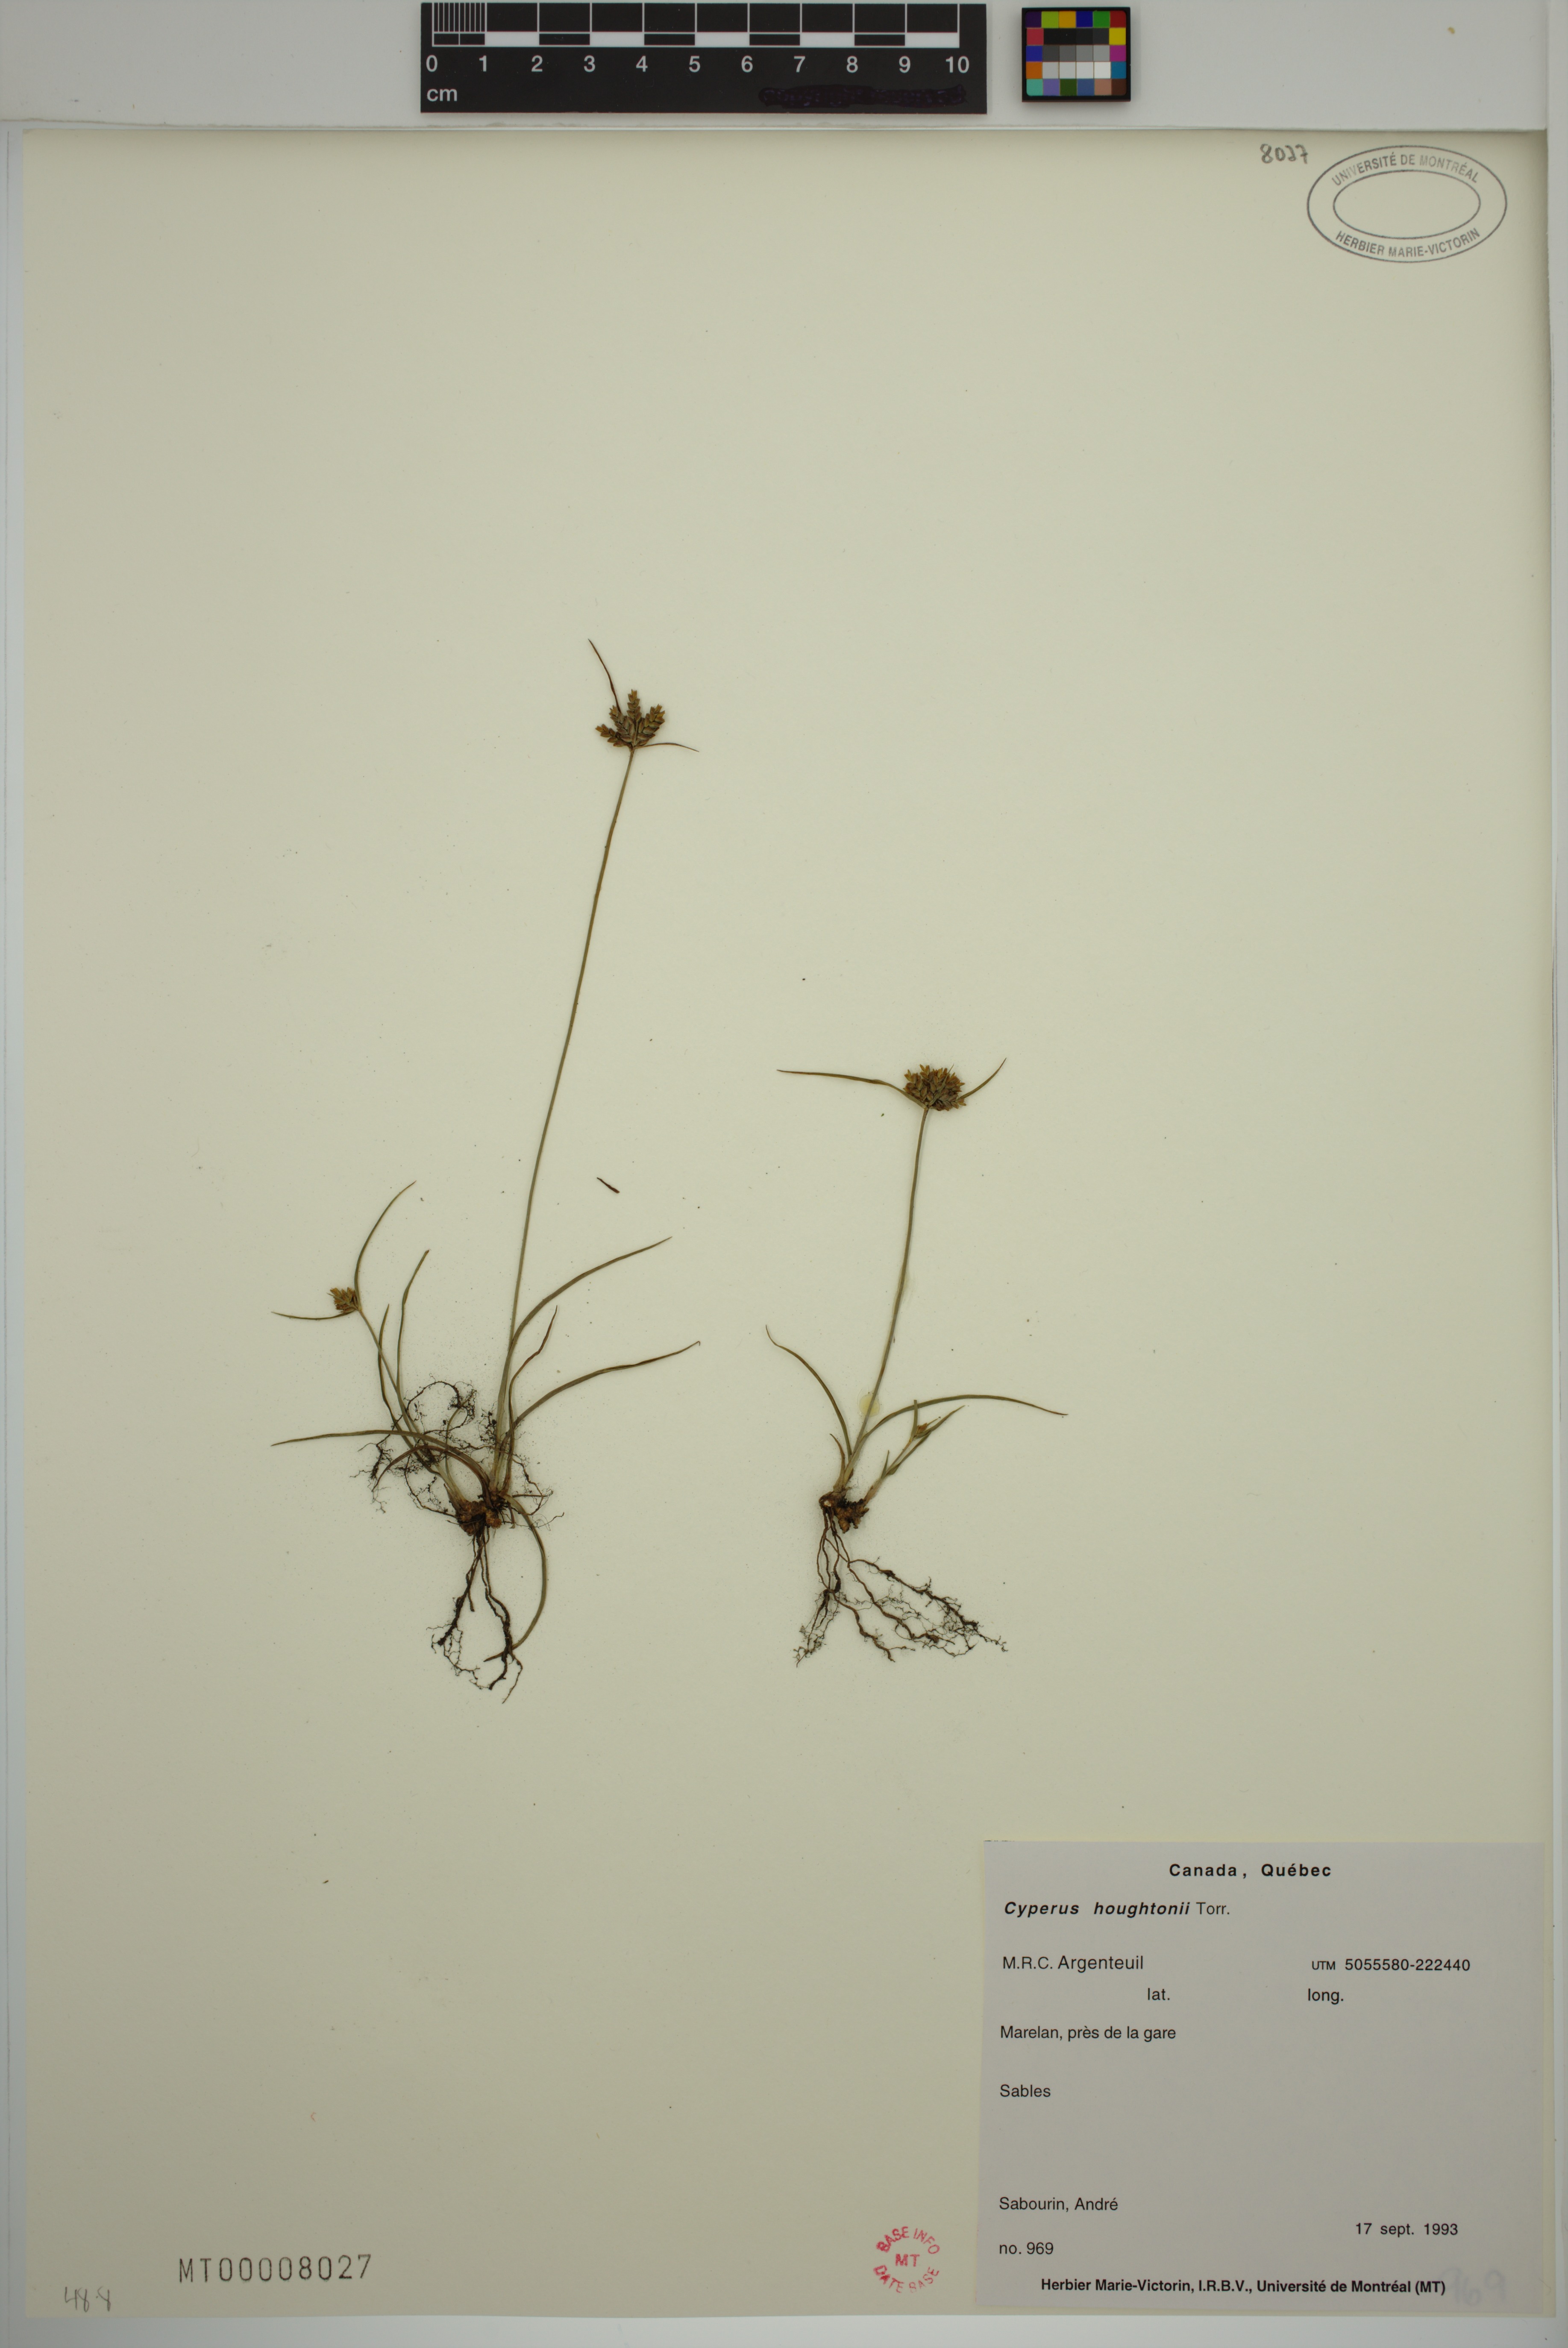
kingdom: Plantae
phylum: Tracheophyta
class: Liliopsida
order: Poales
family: Cyperaceae
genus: Cyperus
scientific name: Cyperus houghtonii
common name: Houghton's cyperus
